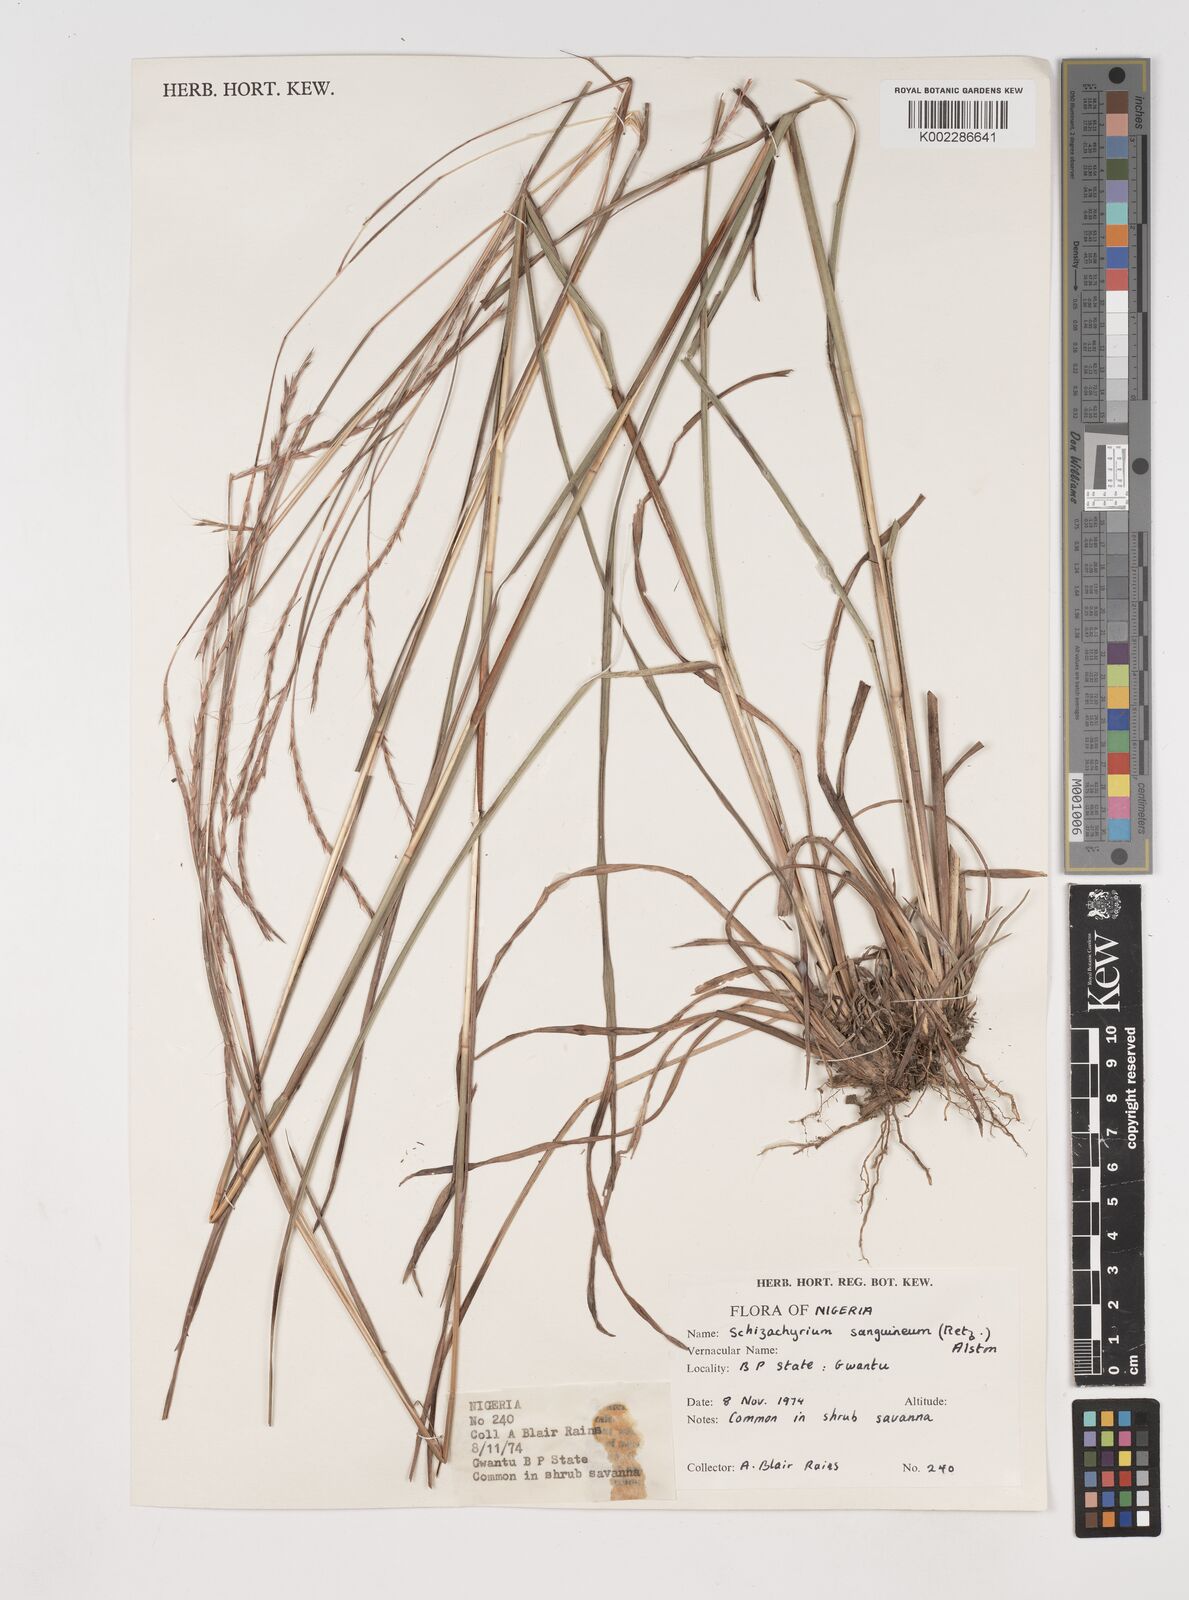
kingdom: Plantae
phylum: Tracheophyta
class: Liliopsida
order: Poales
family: Poaceae
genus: Schizachyrium
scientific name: Schizachyrium sanguineum
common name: Crimson bluestem
